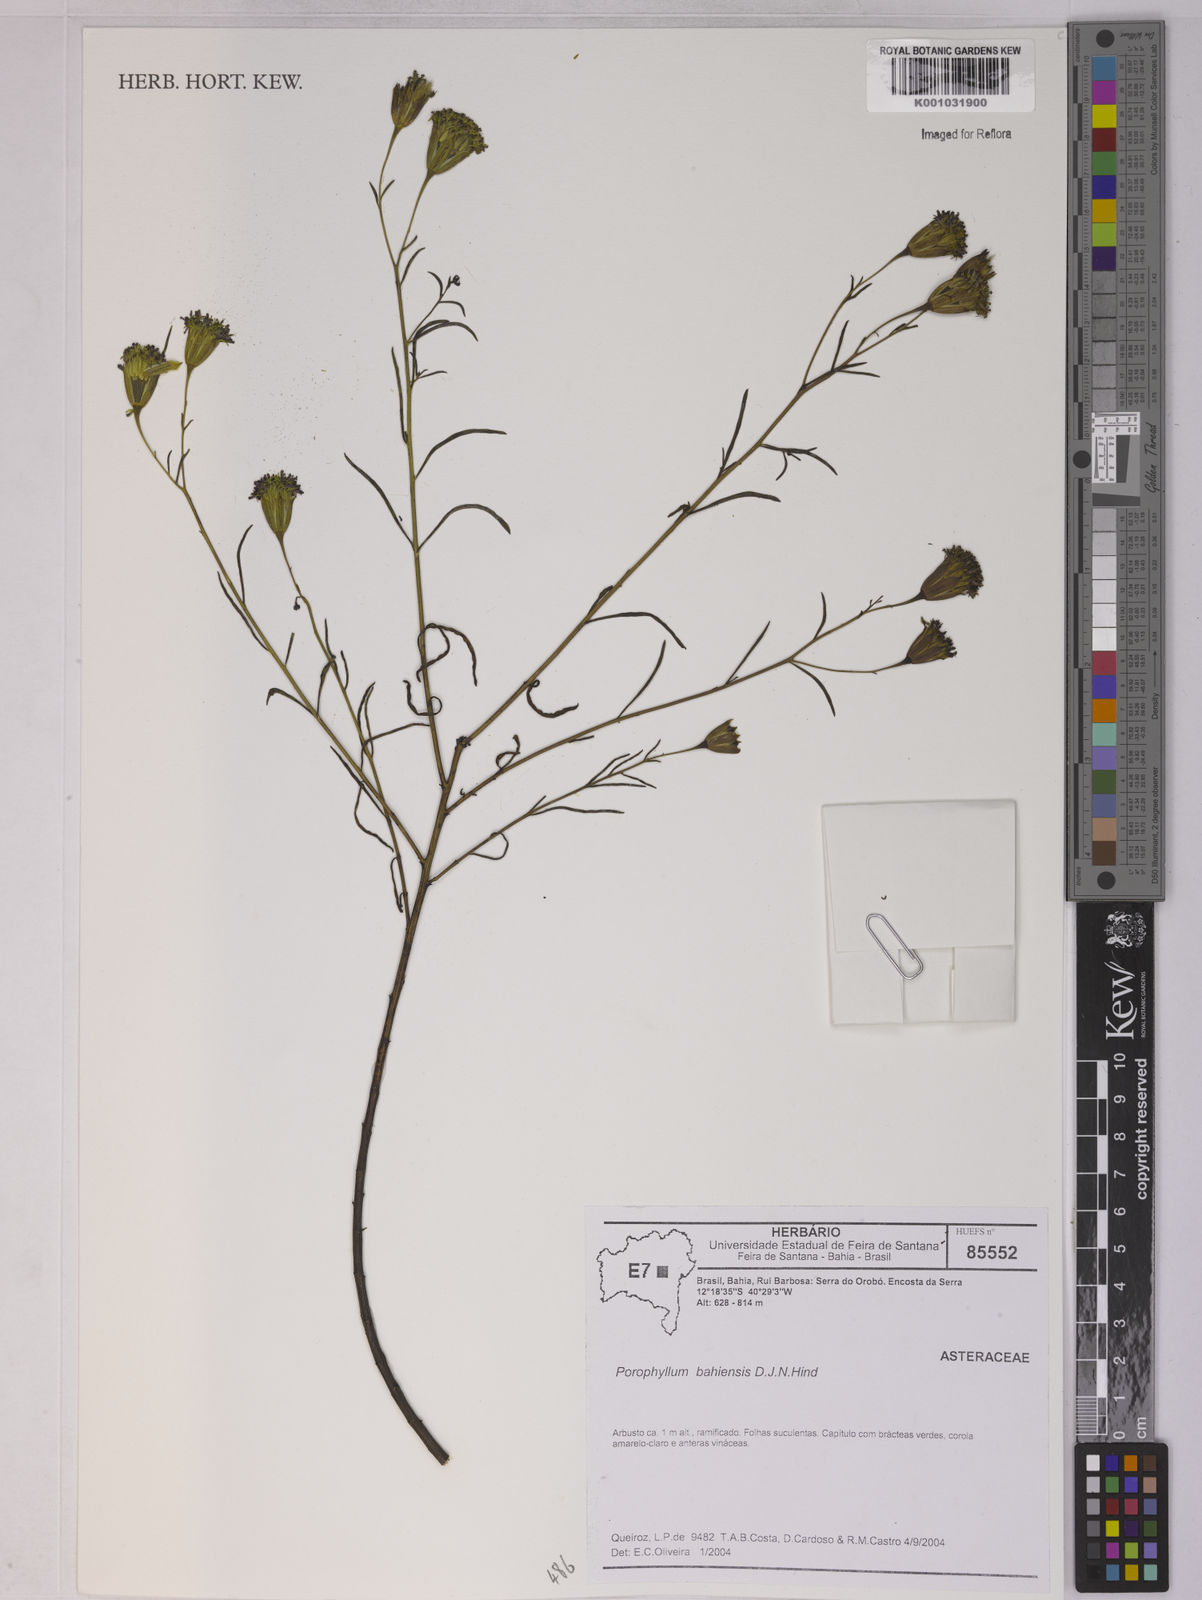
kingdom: Plantae
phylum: Tracheophyta
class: Magnoliopsida
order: Asterales
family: Asteraceae
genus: Porophyllum
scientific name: Porophyllum bahiense
